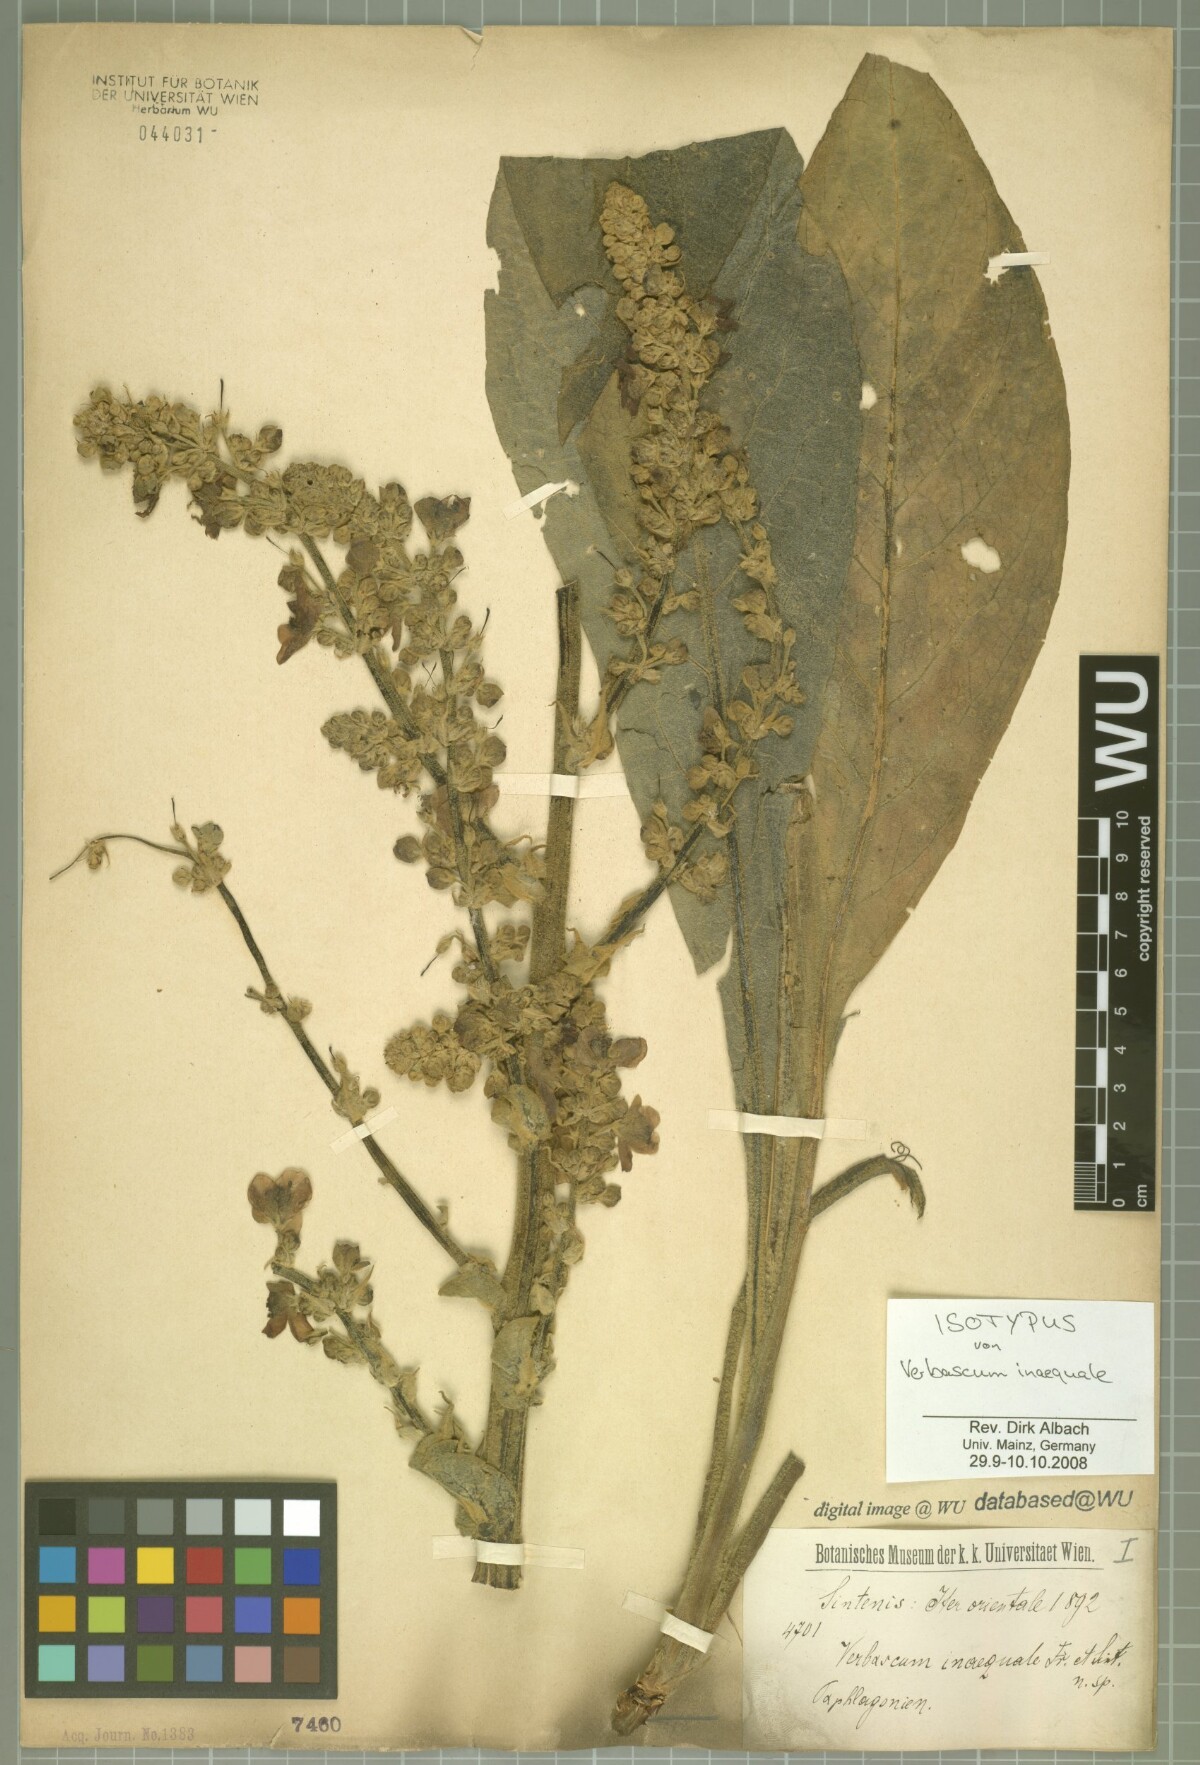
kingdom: Plantae
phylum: Tracheophyta
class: Magnoliopsida
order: Lamiales
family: Scrophulariaceae
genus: Verbascum
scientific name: Verbascum inaequale
